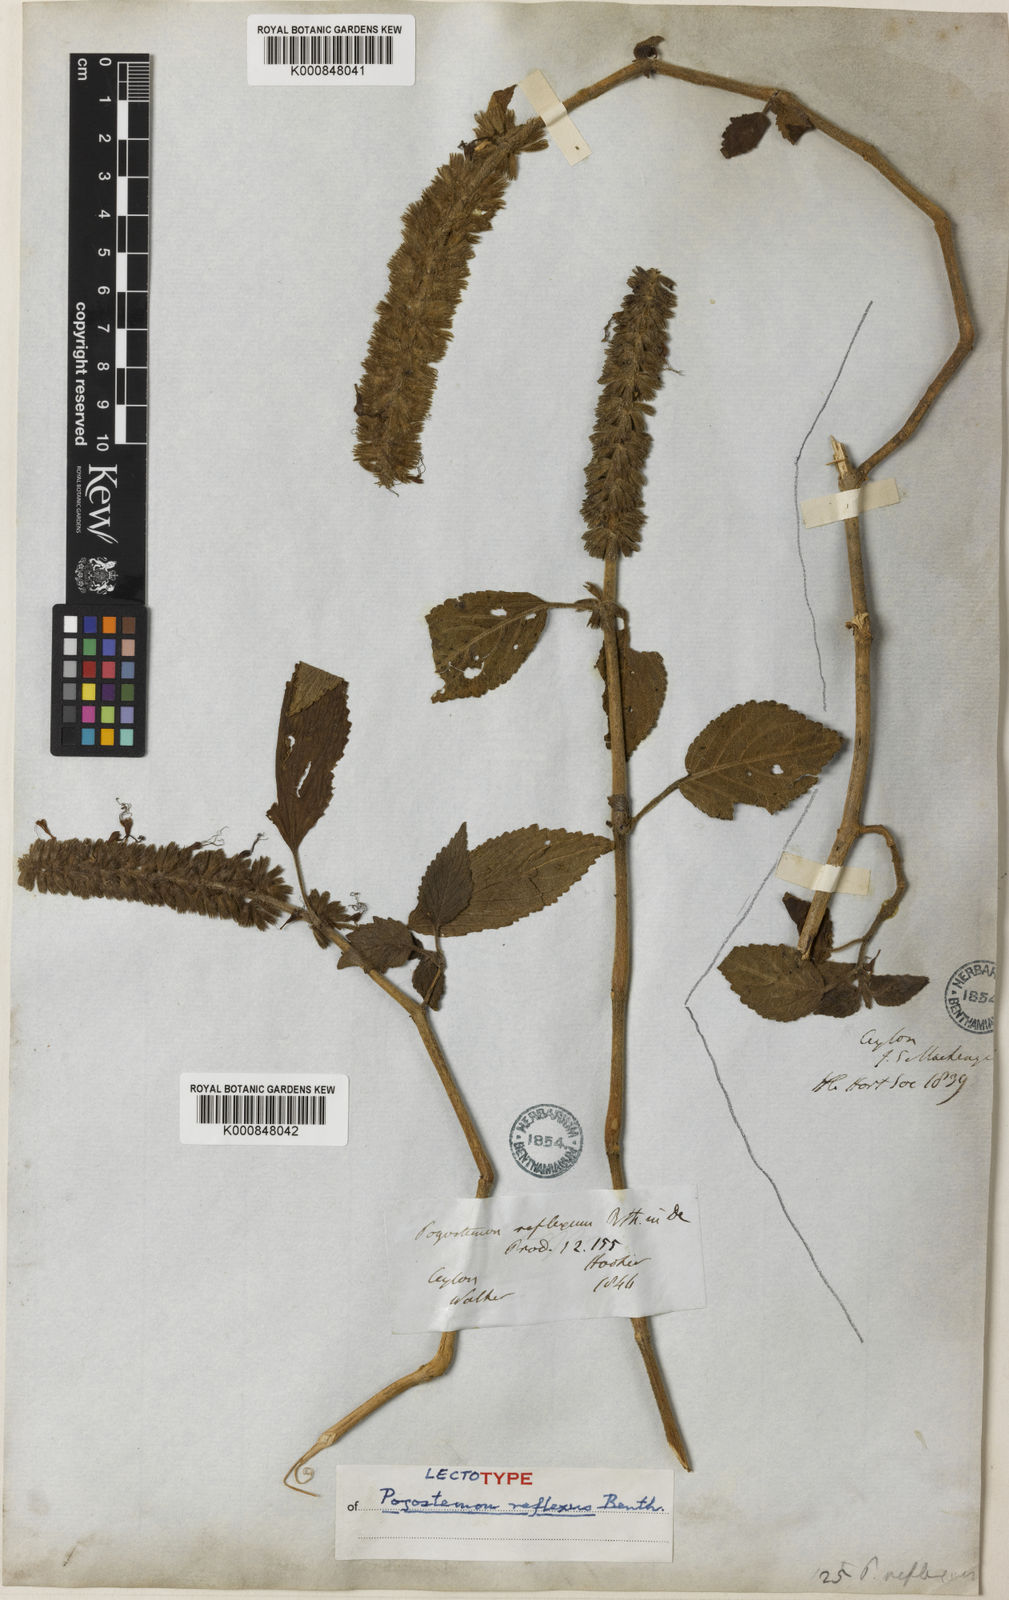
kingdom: Plantae
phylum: Tracheophyta
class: Magnoliopsida
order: Lamiales
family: Lamiaceae
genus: Pogostemon
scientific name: Pogostemon reflexus
